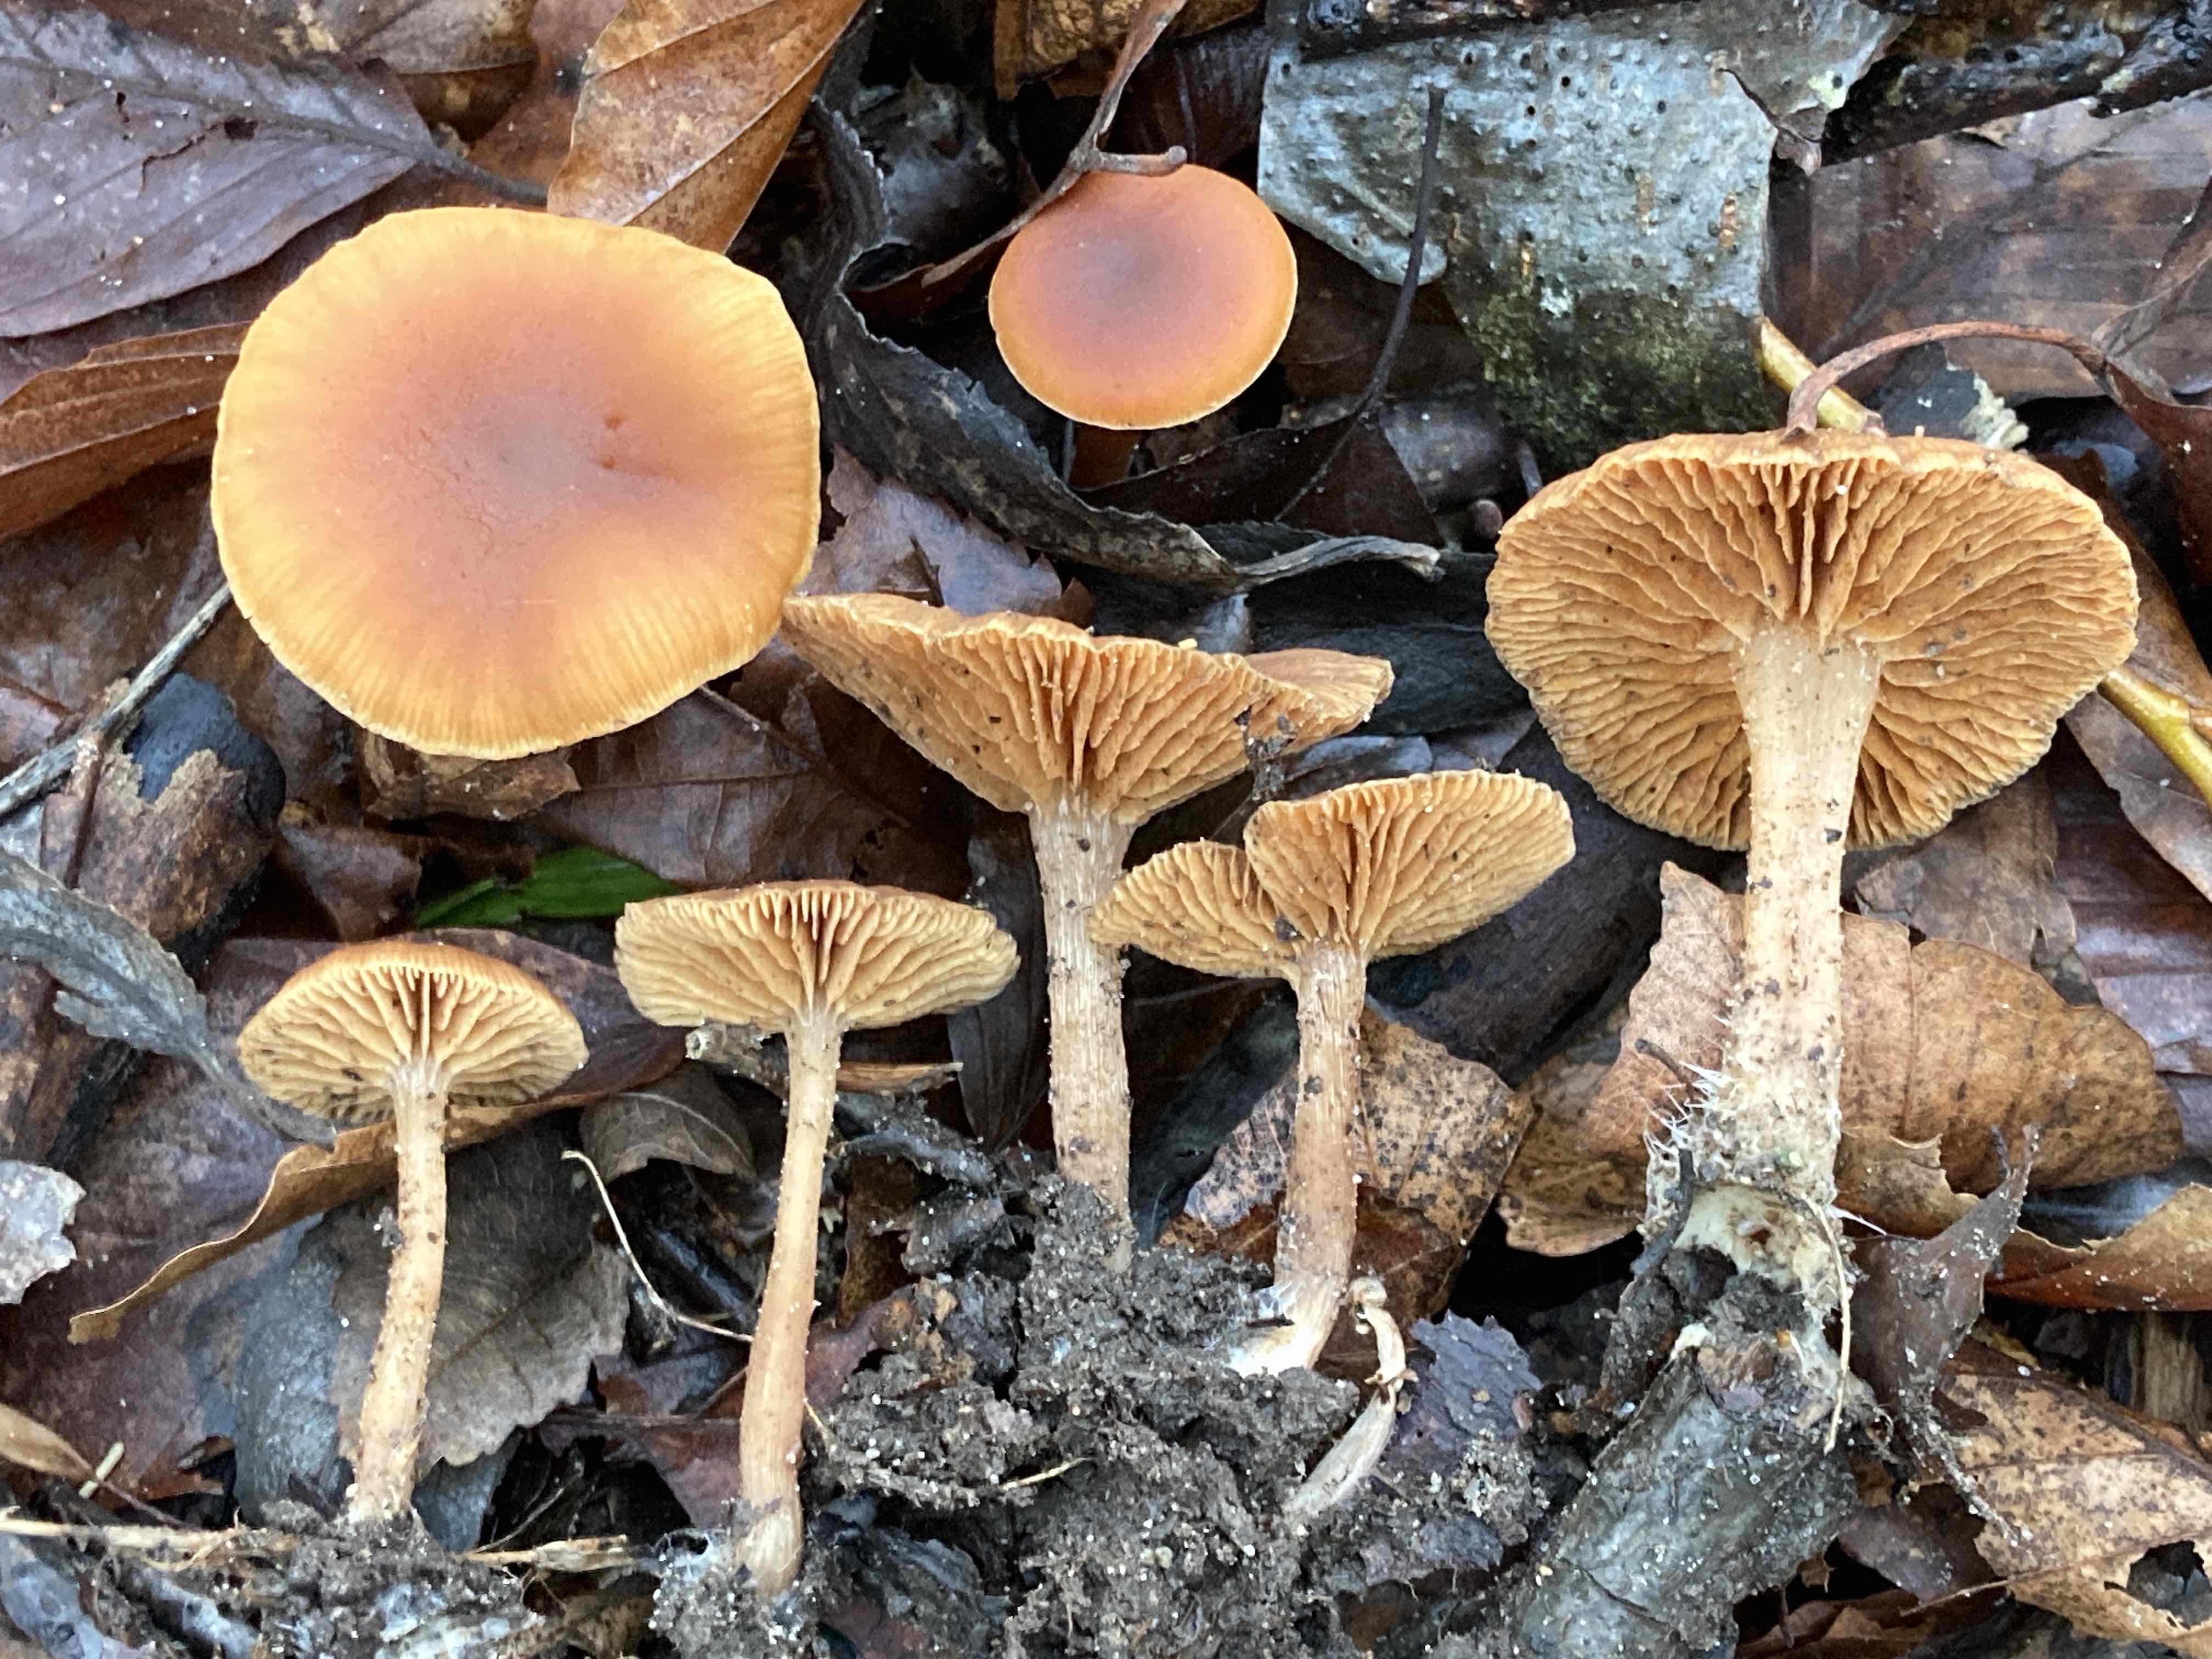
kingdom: Fungi
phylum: Basidiomycota
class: Agaricomycetes
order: Agaricales
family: Tubariaceae
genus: Tubaria
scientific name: Tubaria furfuracea
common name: kliddet fnughat
